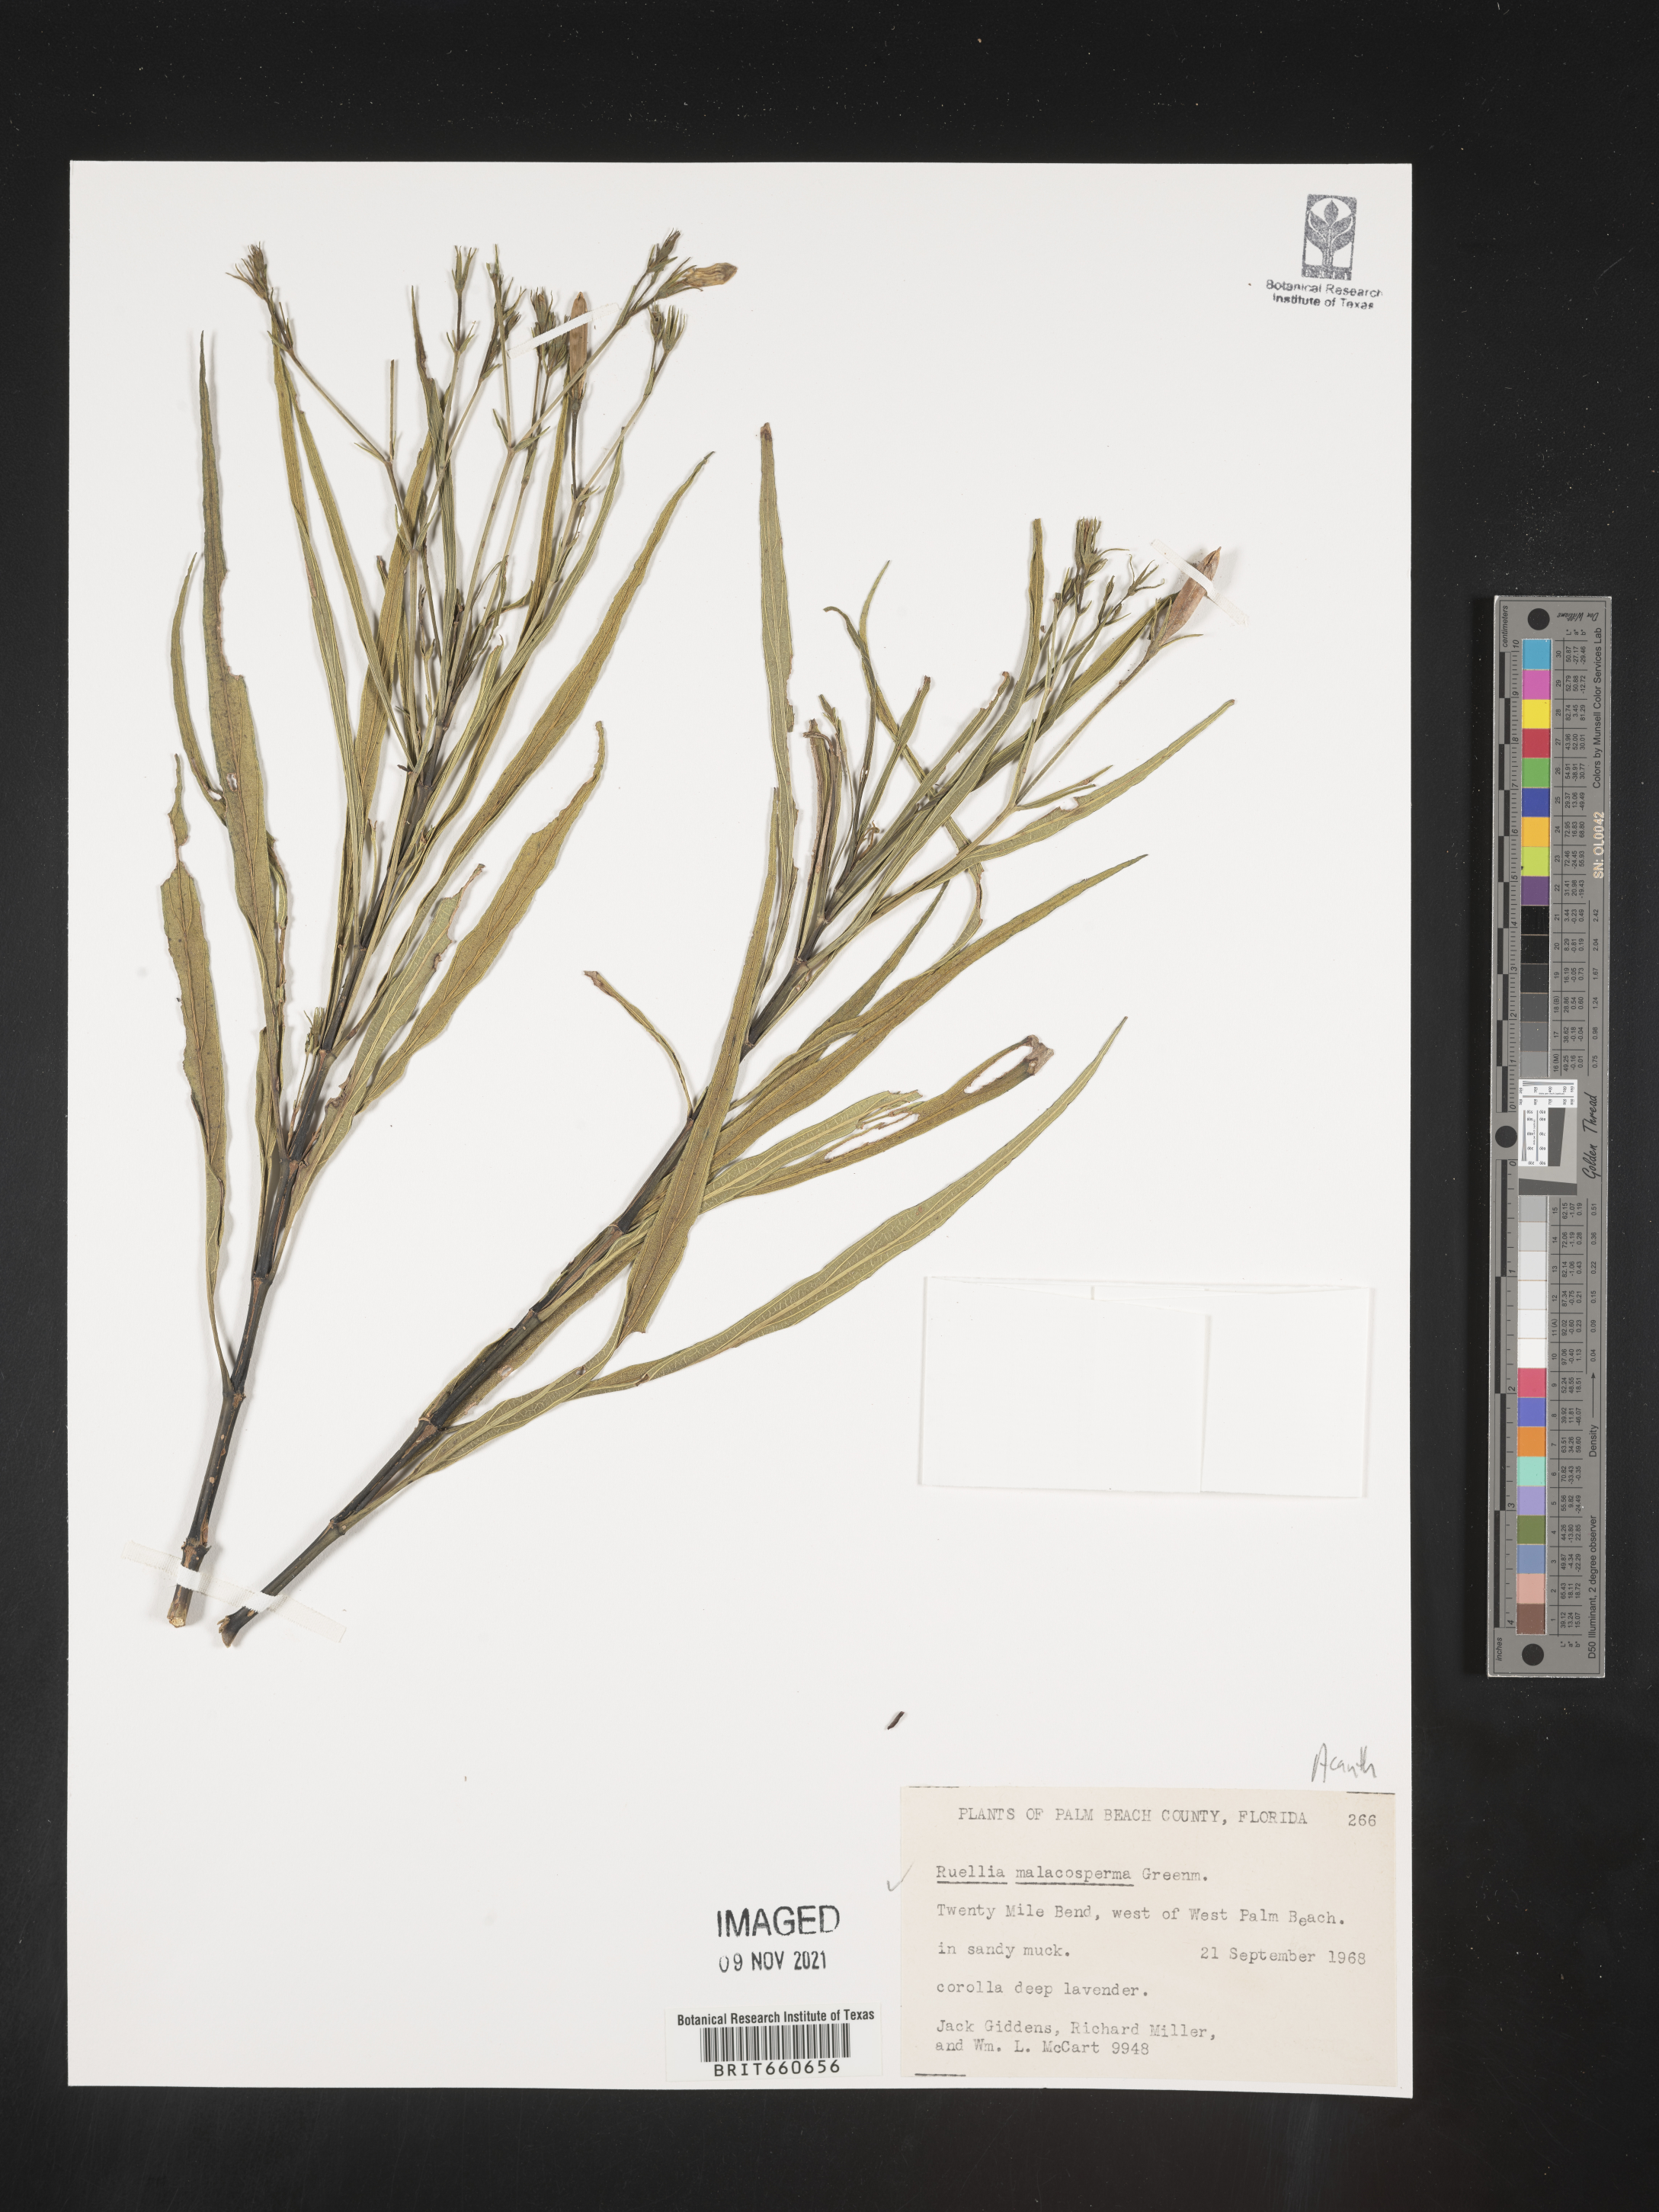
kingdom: Plantae
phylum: Tracheophyta
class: Magnoliopsida
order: Lamiales
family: Acanthaceae
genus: Ruellia
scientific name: Ruellia
